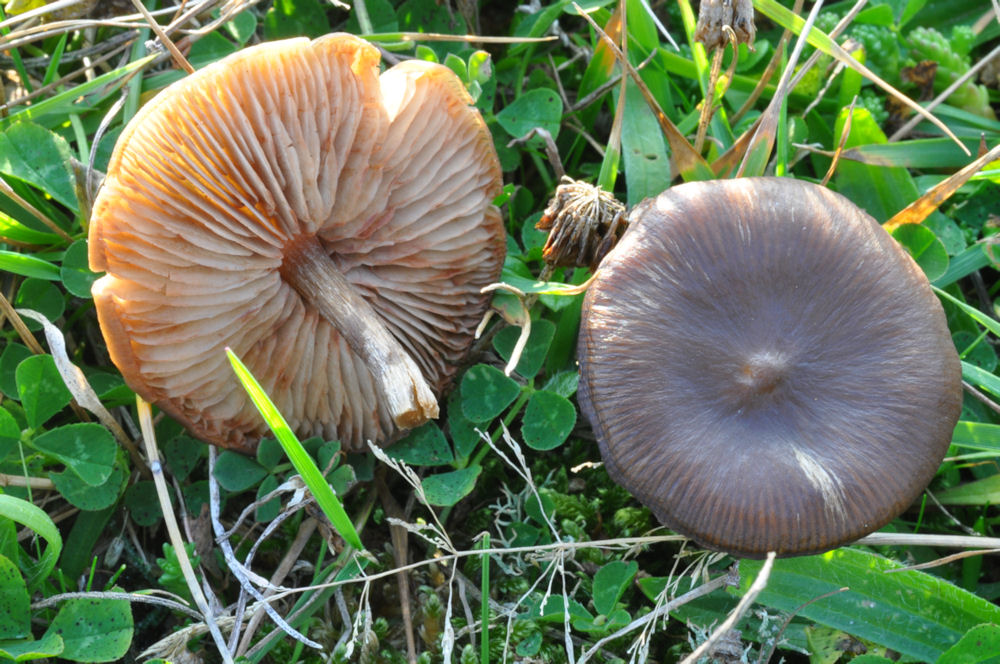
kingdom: Fungi
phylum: Basidiomycota
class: Agaricomycetes
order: Agaricales
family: Entolomataceae
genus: Entoloma
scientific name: Entoloma
